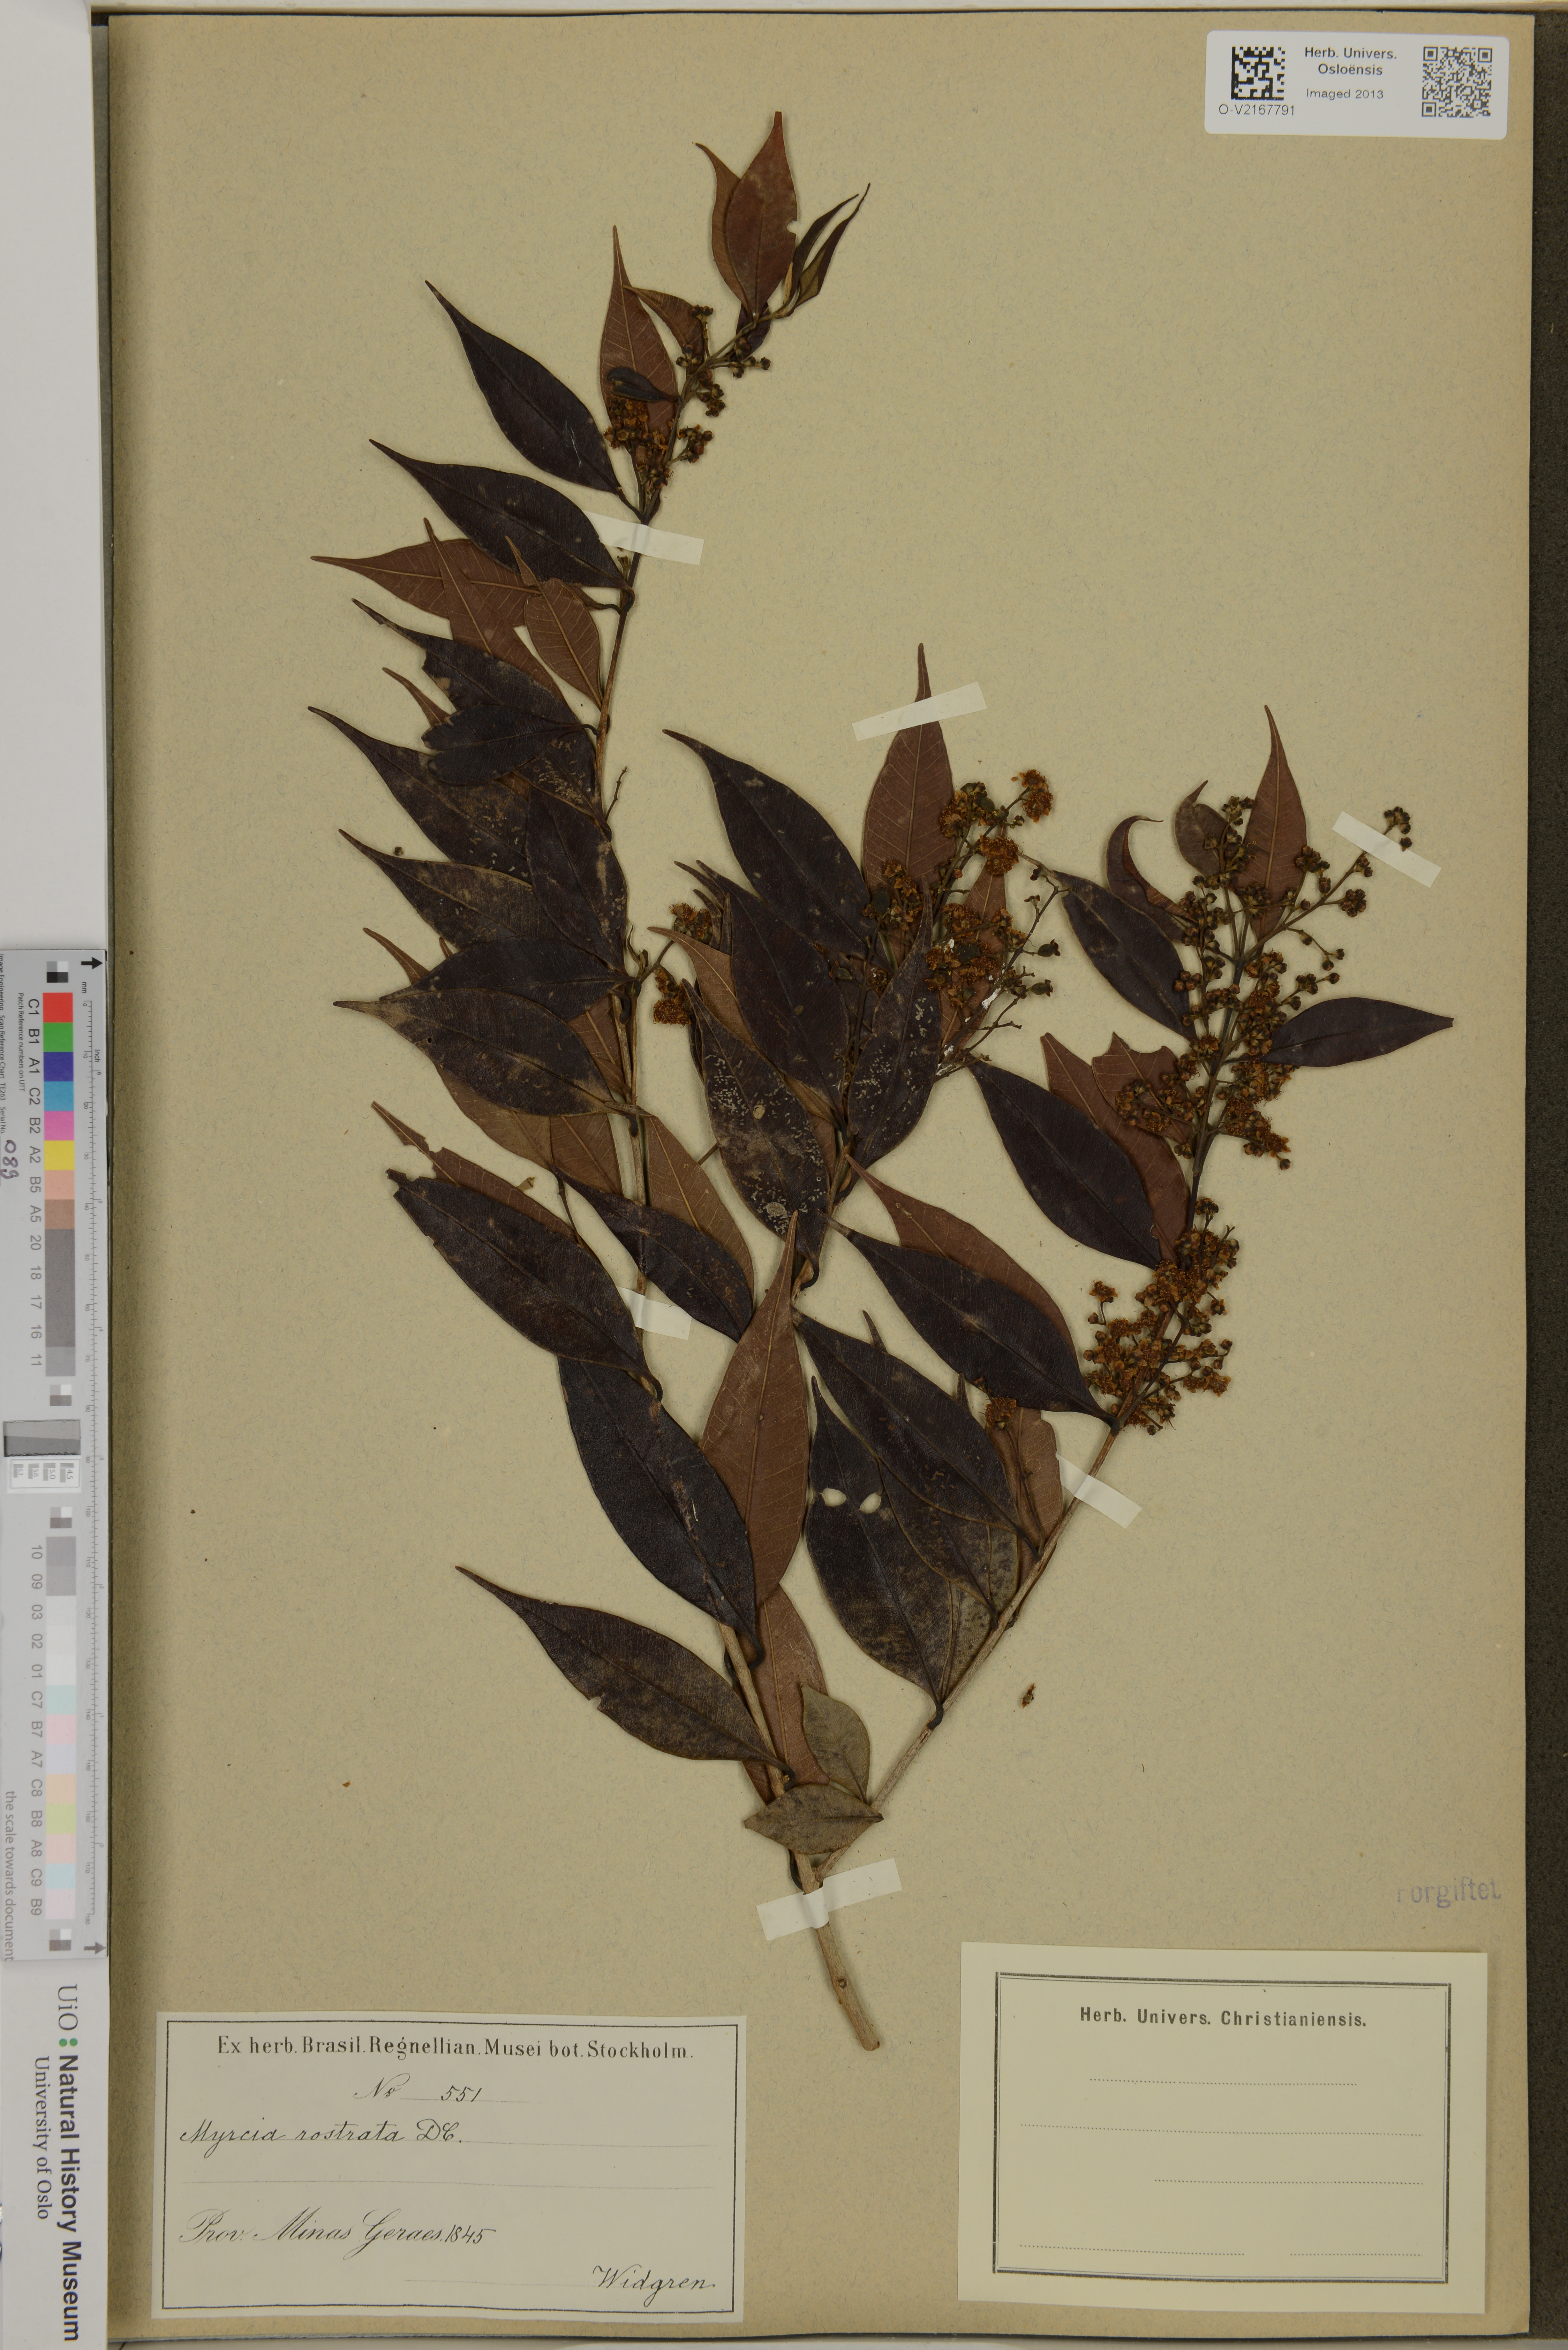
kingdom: Plantae
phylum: Tracheophyta
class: Magnoliopsida
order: Myrtales
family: Myrtaceae
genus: Myrcia
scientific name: Myrcia splendens
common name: Surinam cherry
